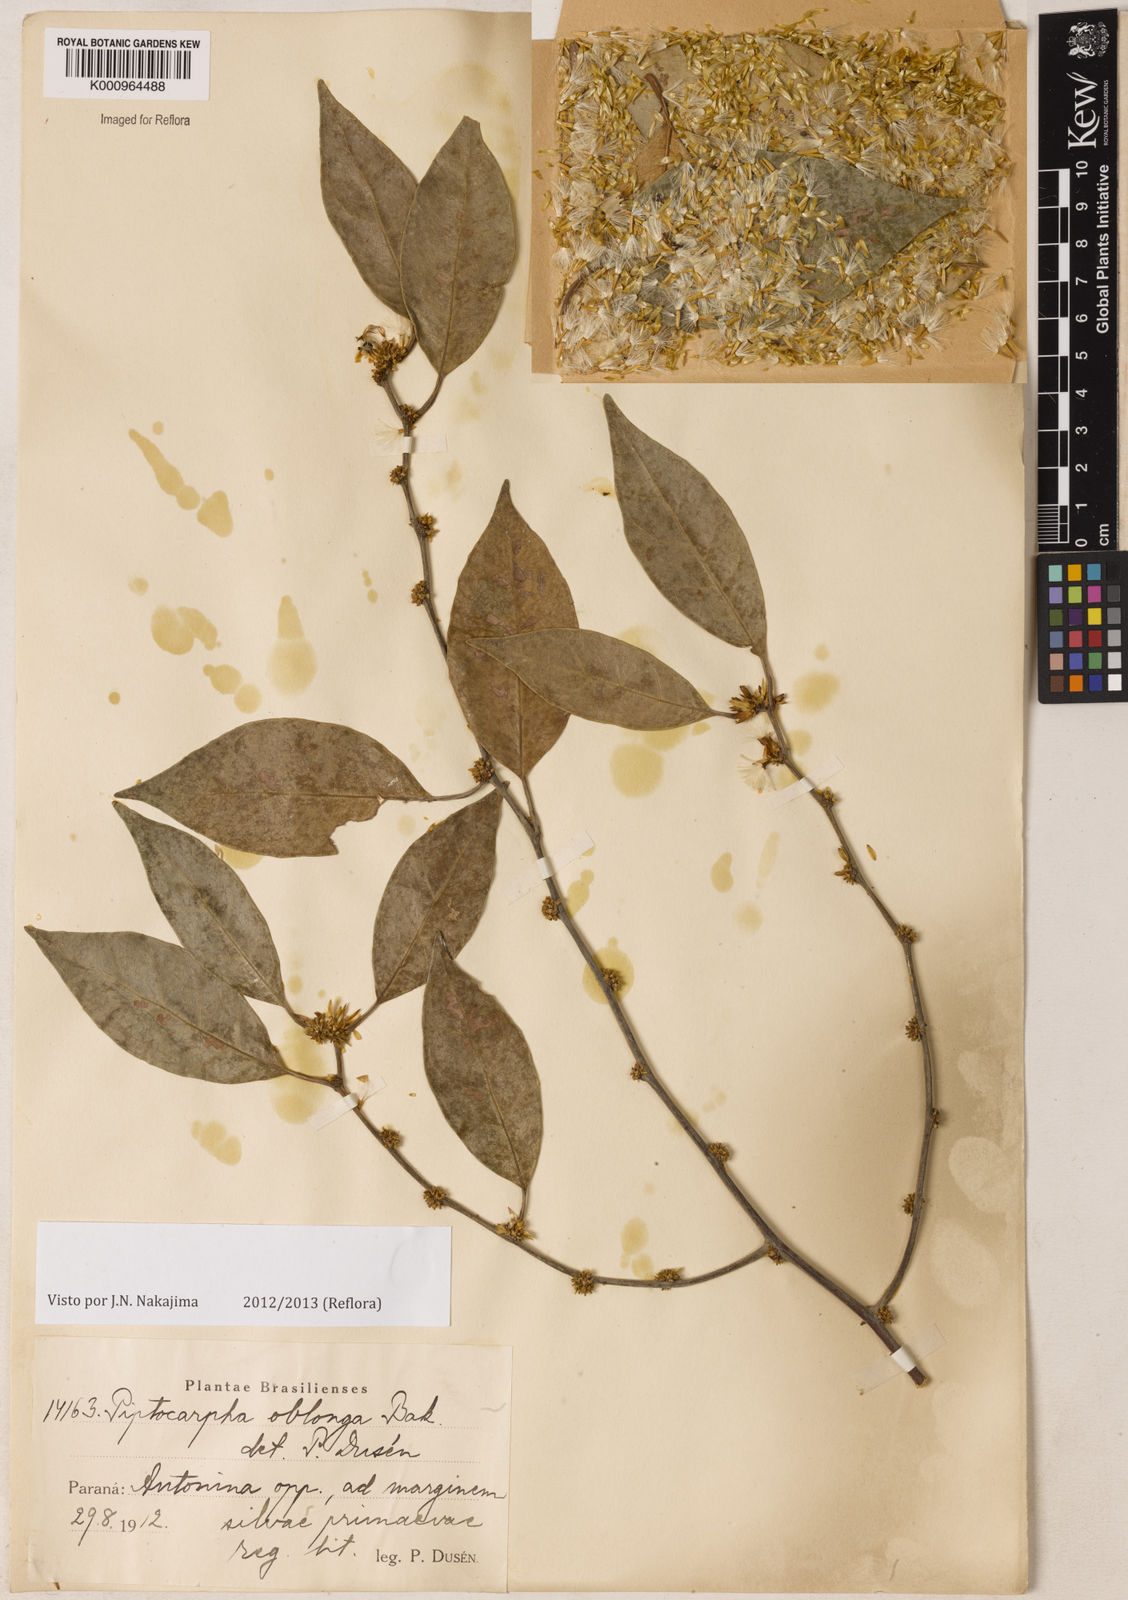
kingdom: Plantae
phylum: Tracheophyta
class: Magnoliopsida
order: Asterales
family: Asteraceae
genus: Piptocarpha
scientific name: Piptocarpha oblonga
